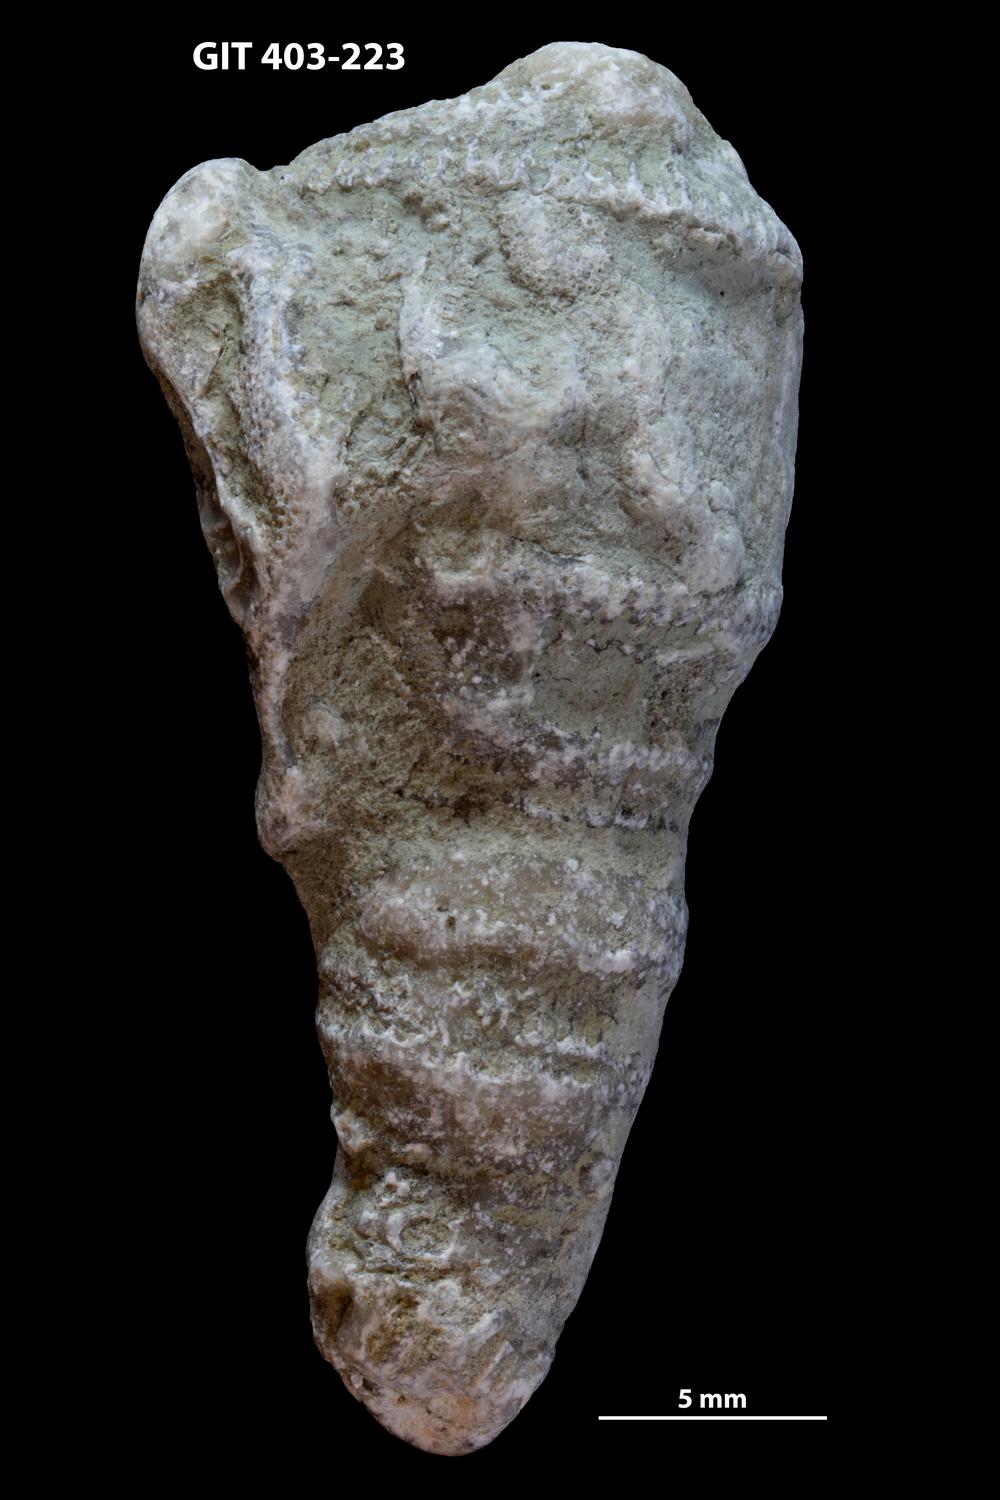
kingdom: Animalia
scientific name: Animalia
